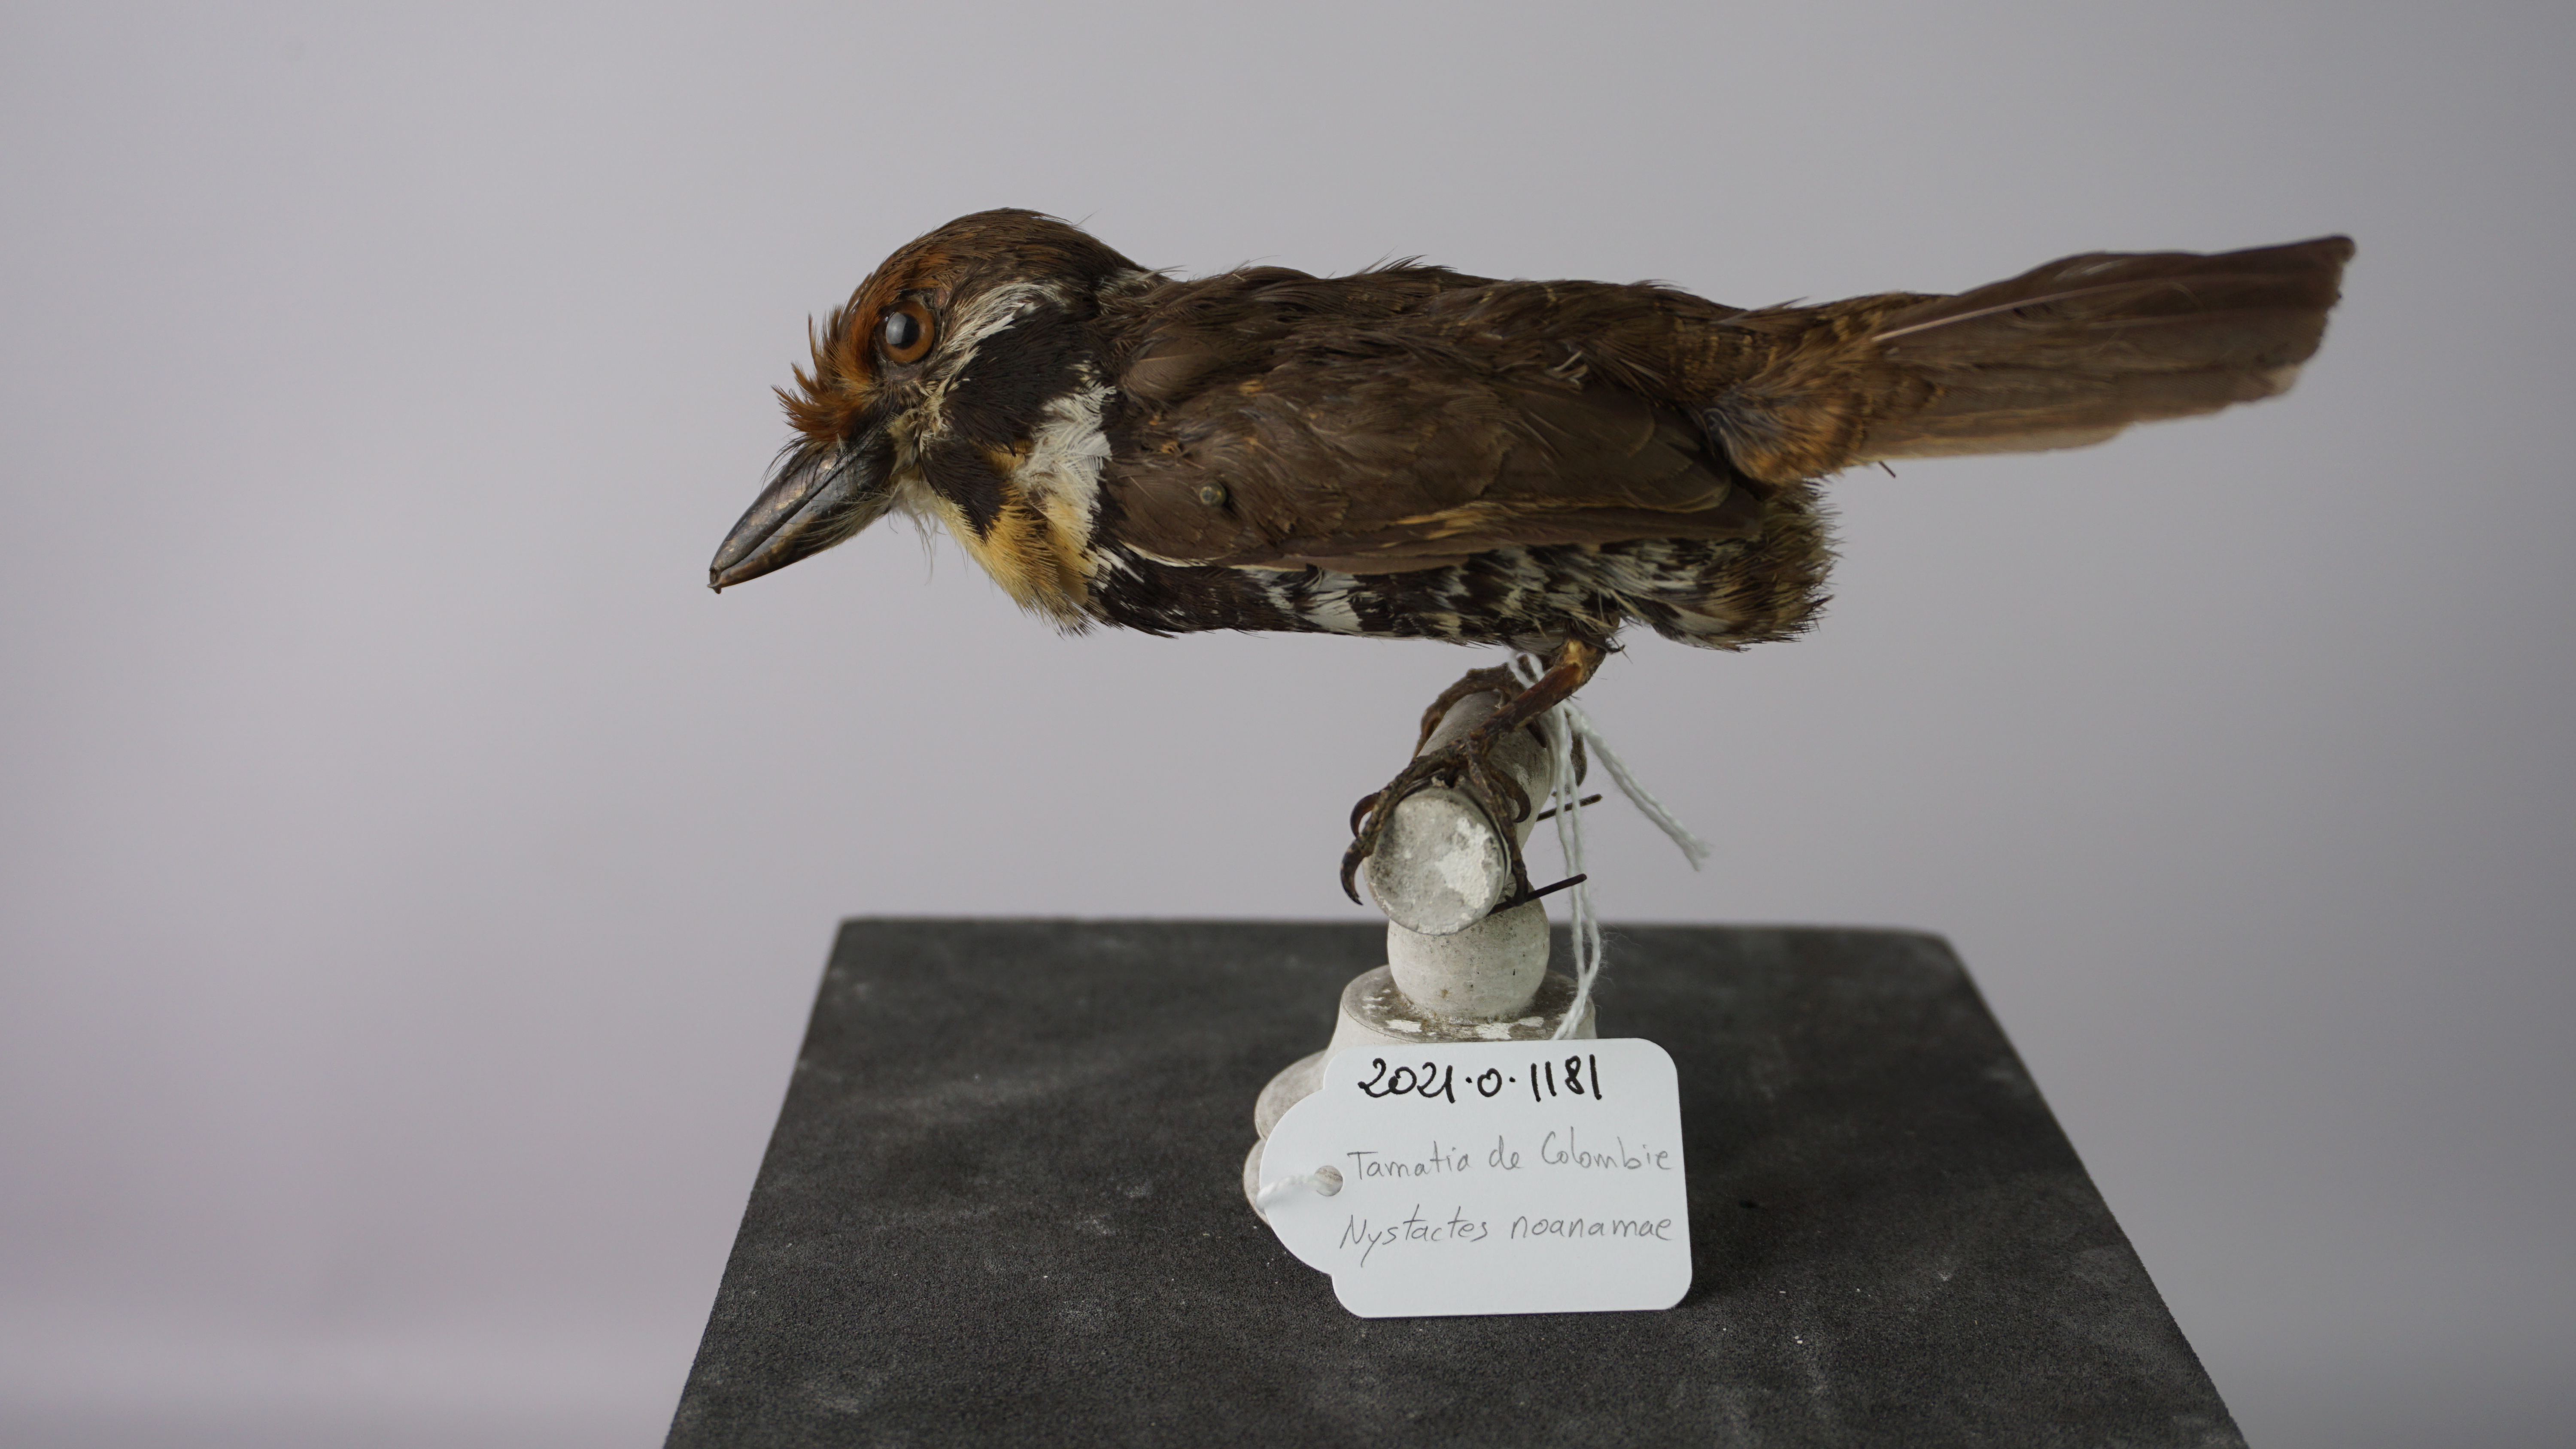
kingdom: Animalia
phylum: Chordata
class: Aves
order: Piciformes
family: Bucconidae
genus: Bucco
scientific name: Bucco noanamae
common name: Sooty-capped puffbird
